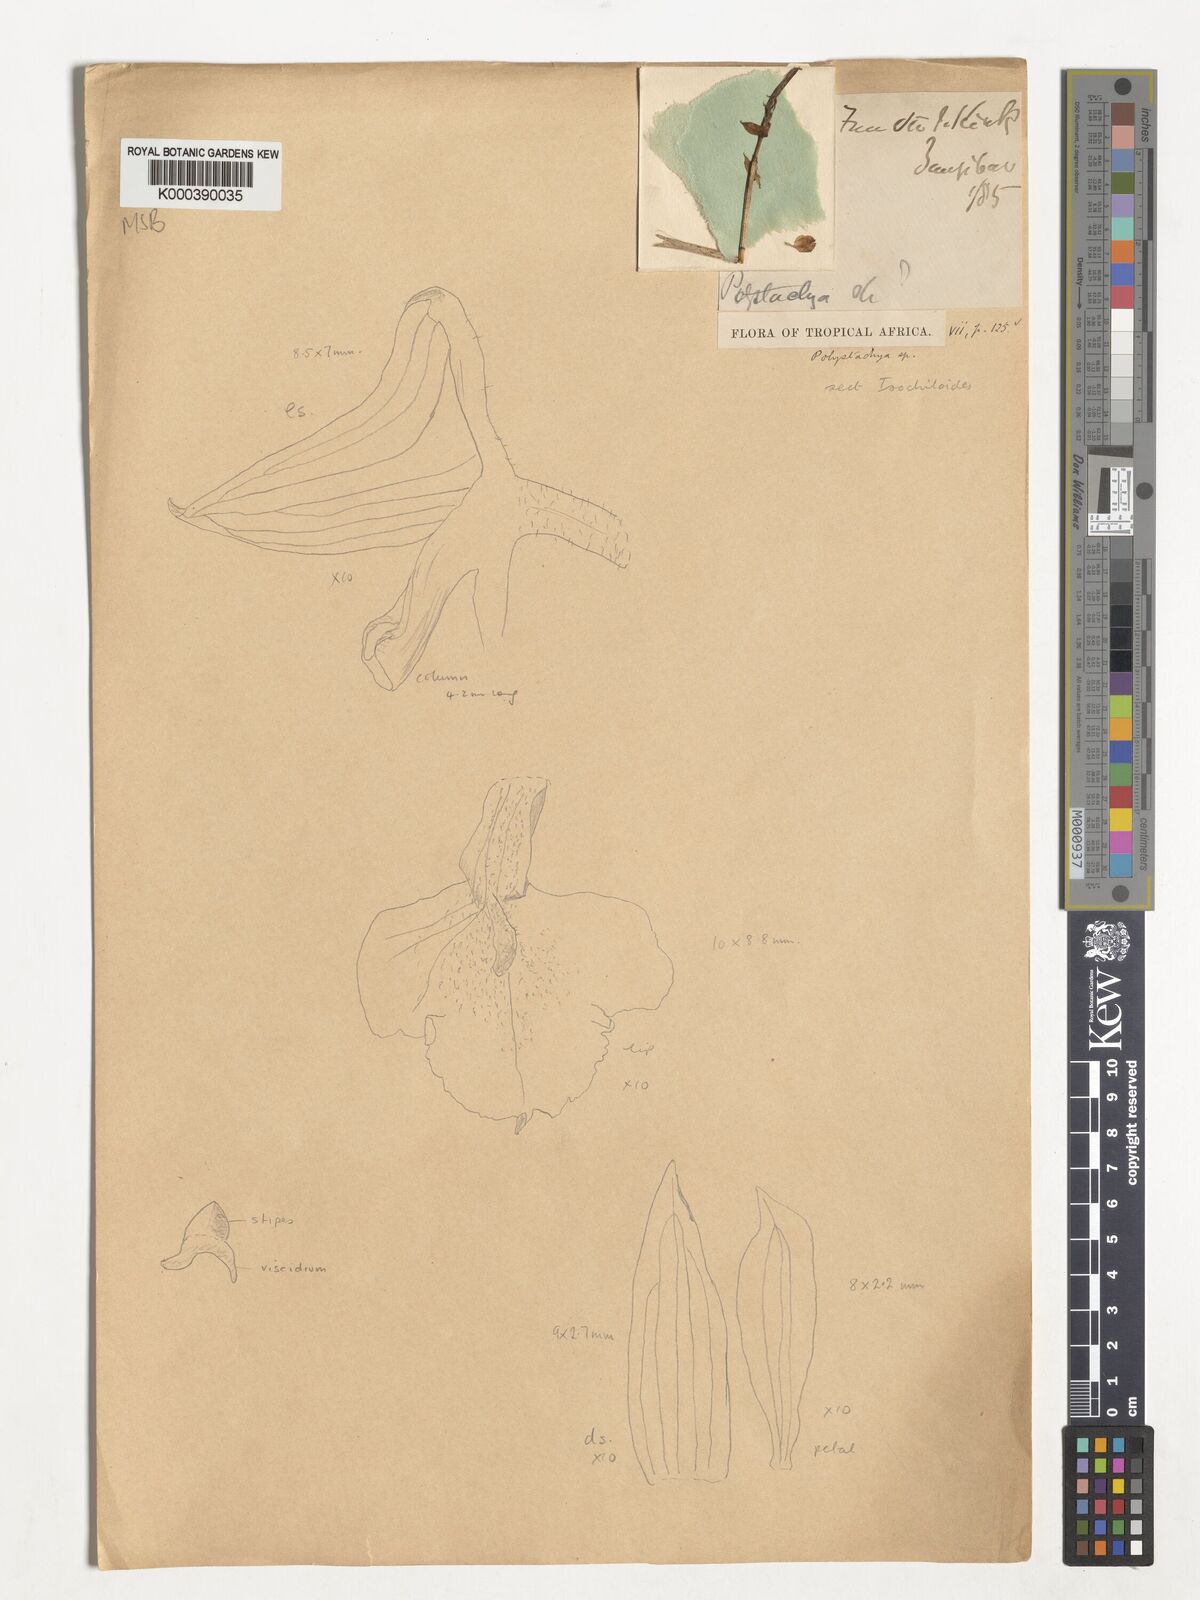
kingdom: Plantae
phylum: Tracheophyta
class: Liliopsida
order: Asparagales
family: Orchidaceae
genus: Polystachya
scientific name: Polystachya caudata
